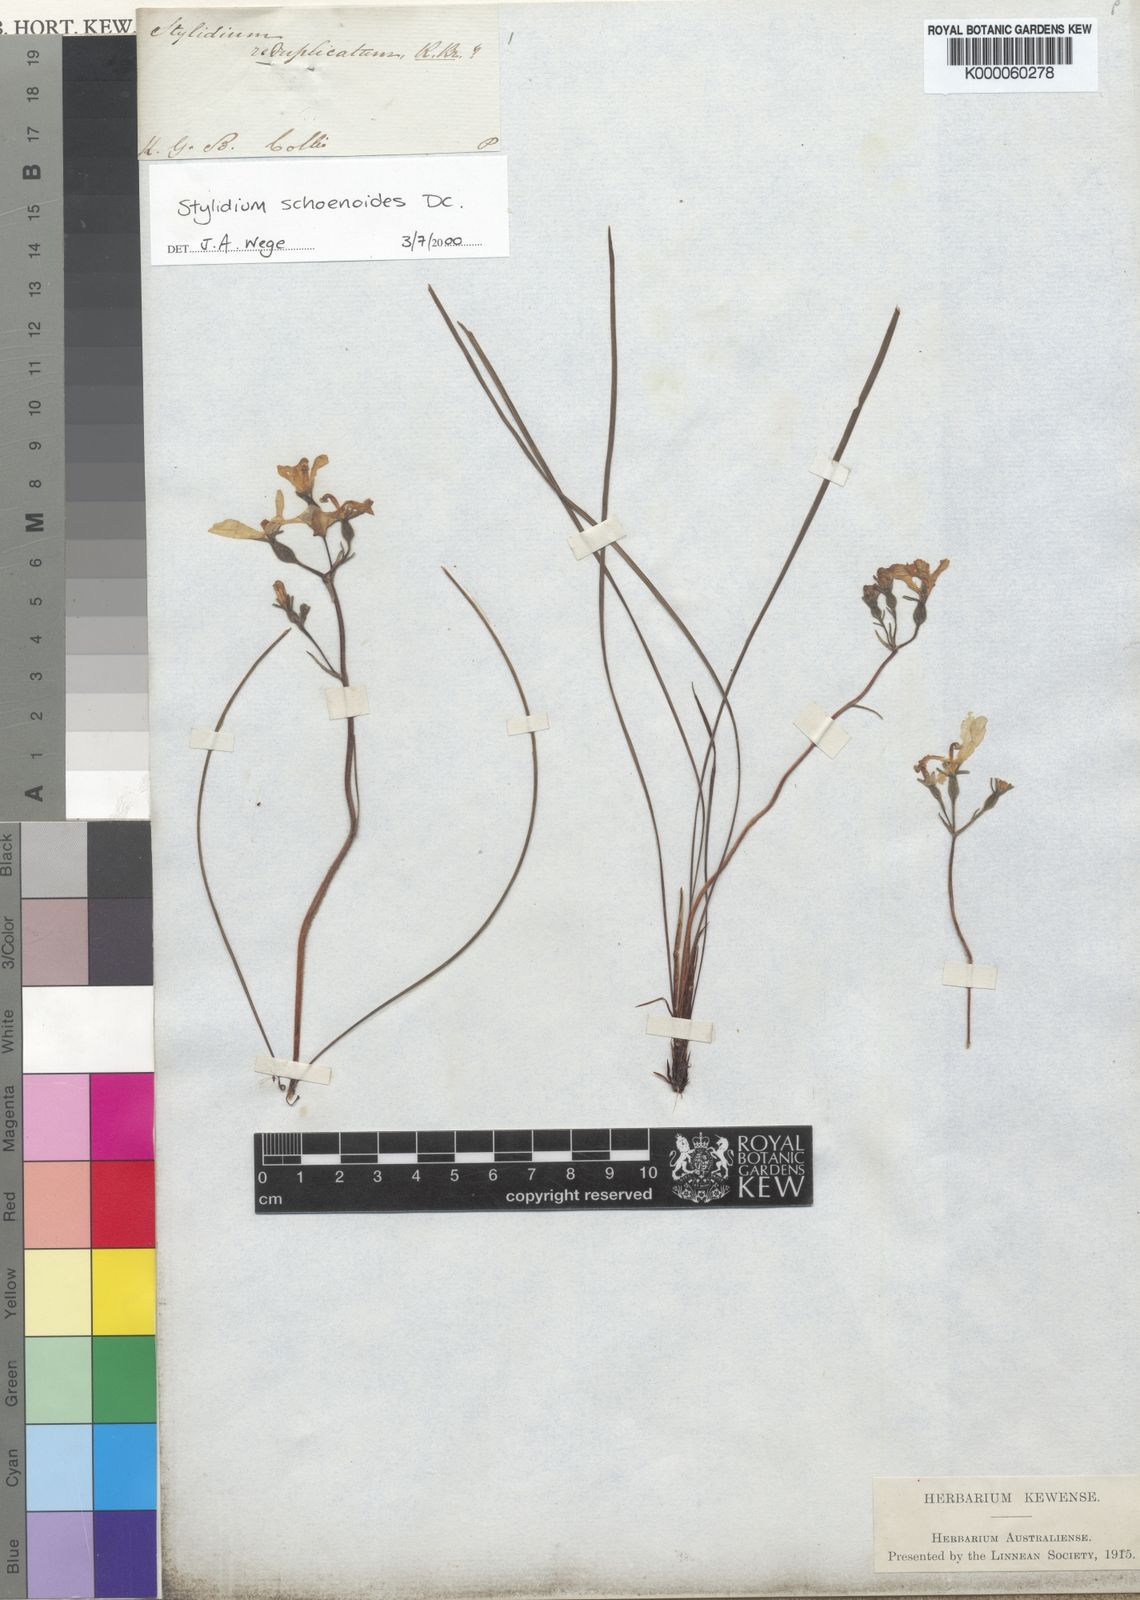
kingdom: Plantae
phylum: Tracheophyta
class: Magnoliopsida
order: Asterales
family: Stylidiaceae
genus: Stylidium
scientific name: Stylidium schoenoides
